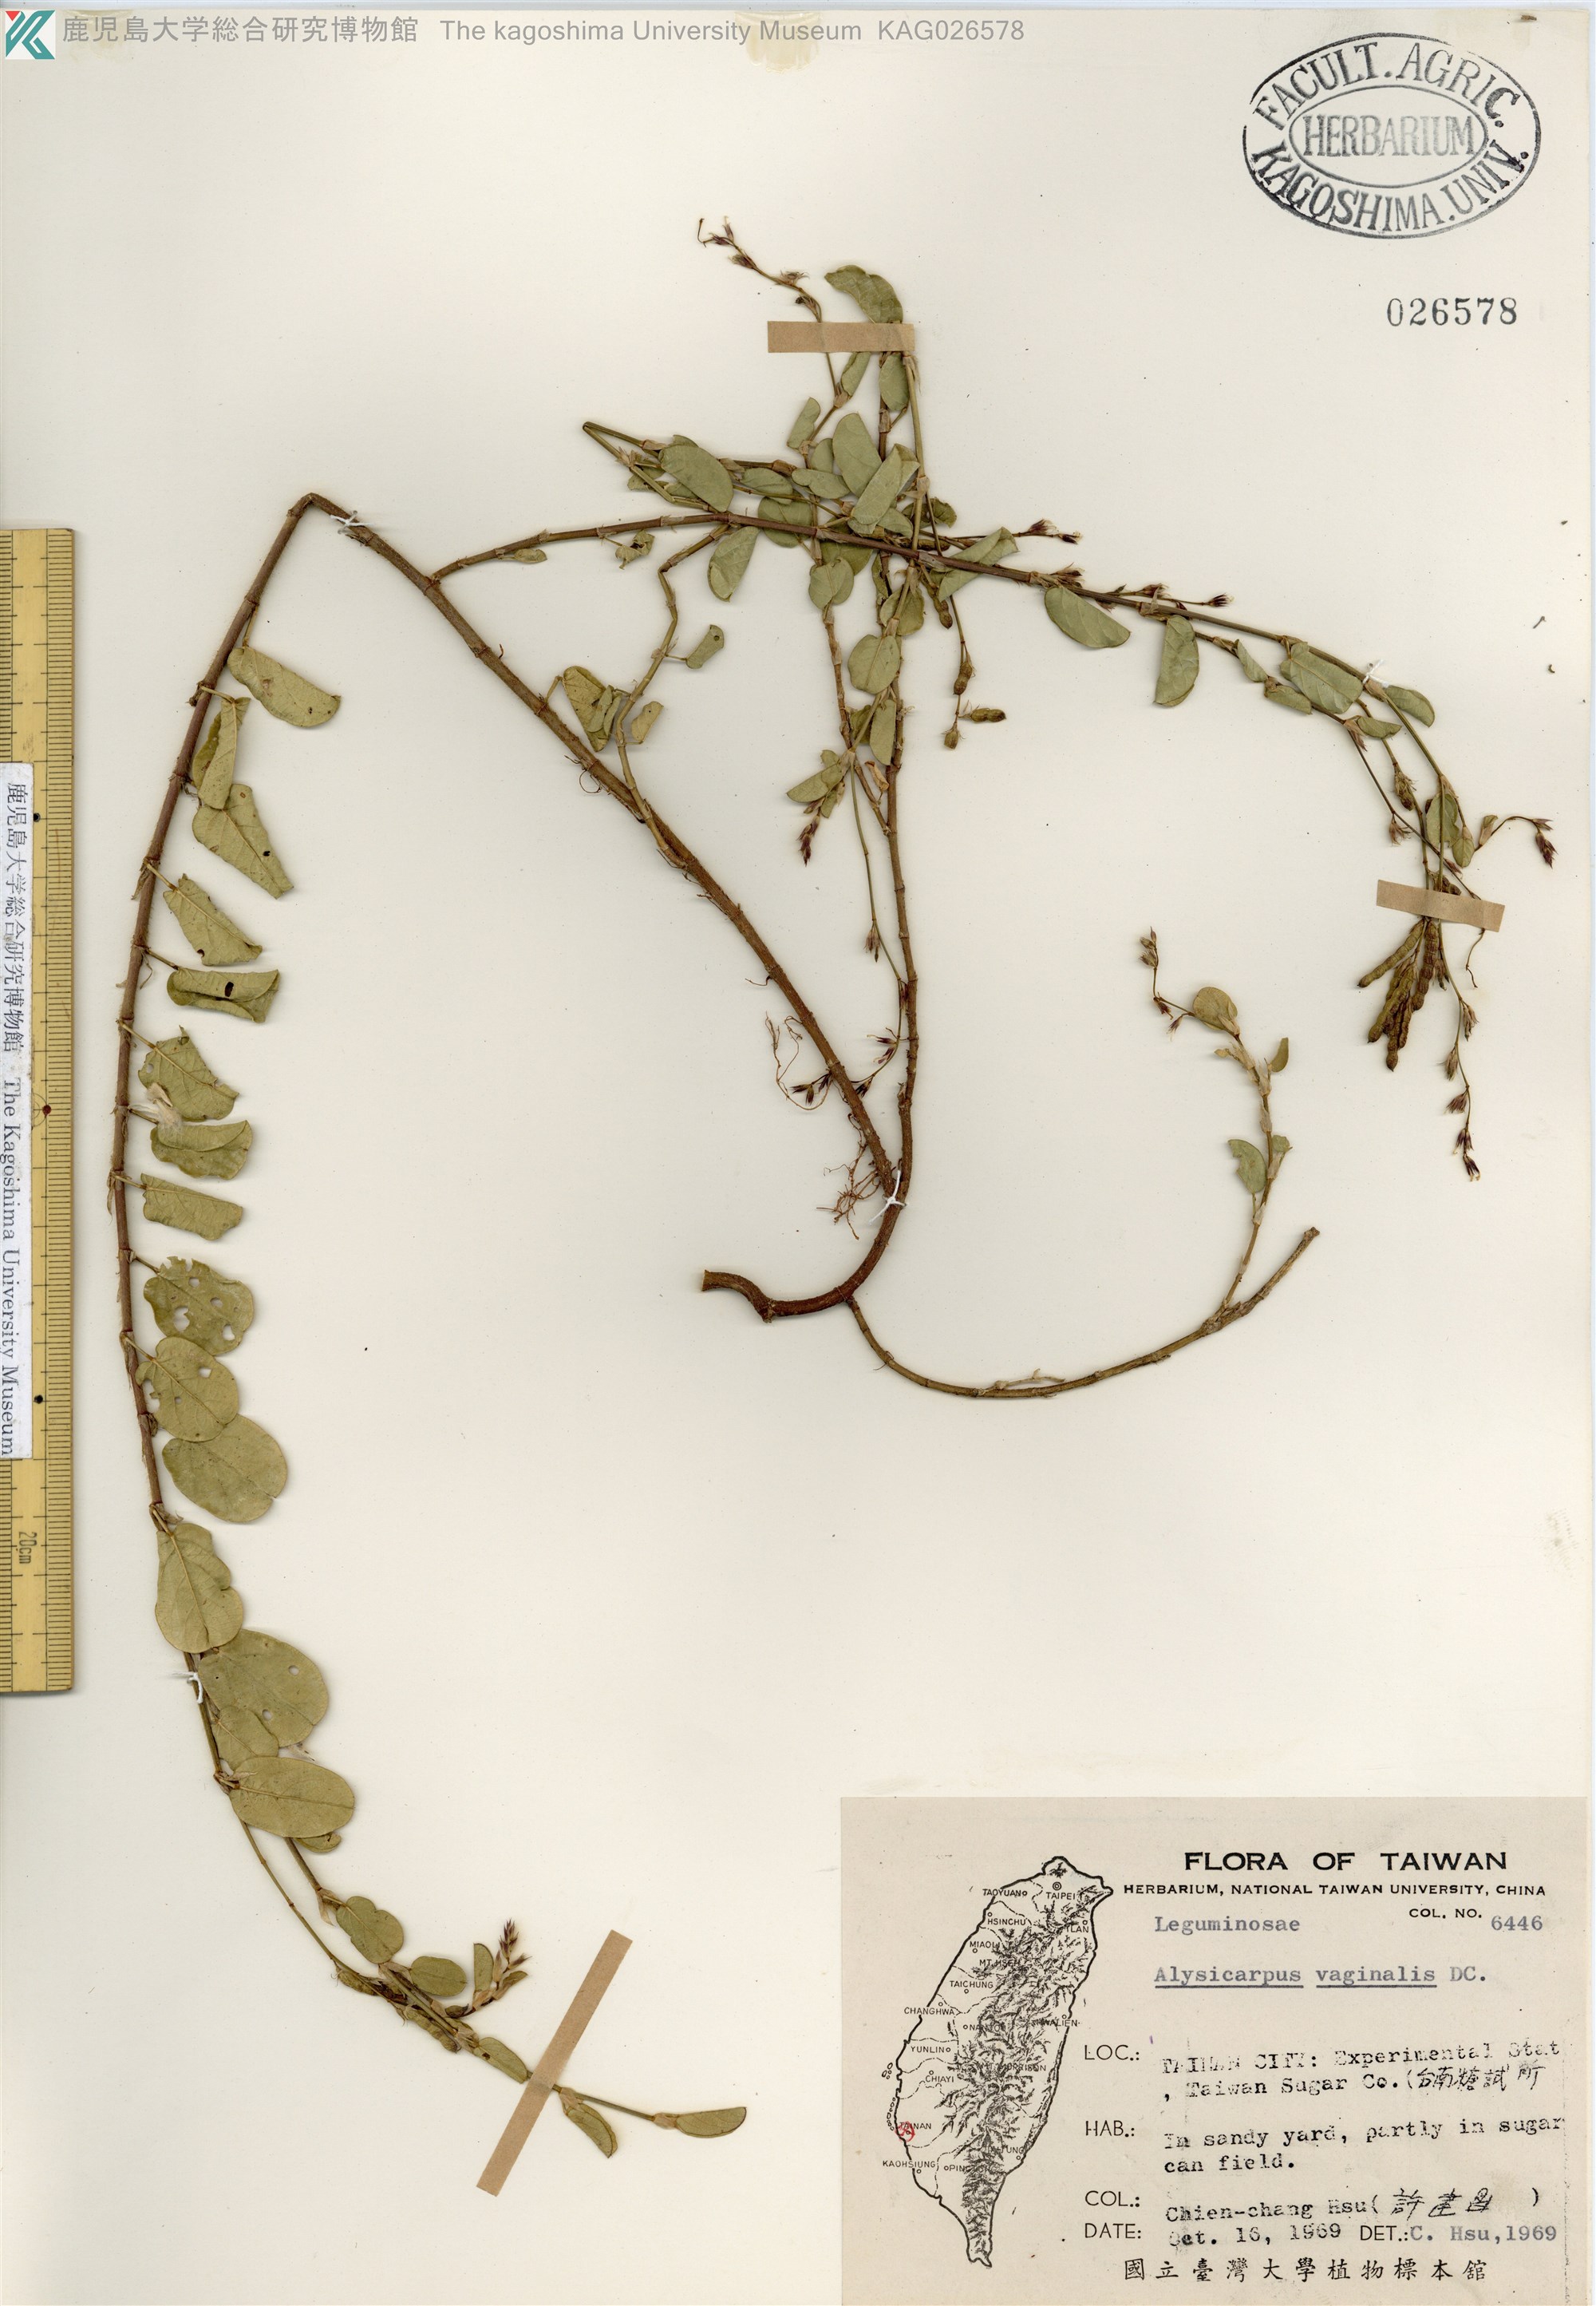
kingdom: Plantae
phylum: Tracheophyta
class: Magnoliopsida
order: Fabales
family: Fabaceae
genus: Alysicarpus
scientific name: Alysicarpus vaginalis
